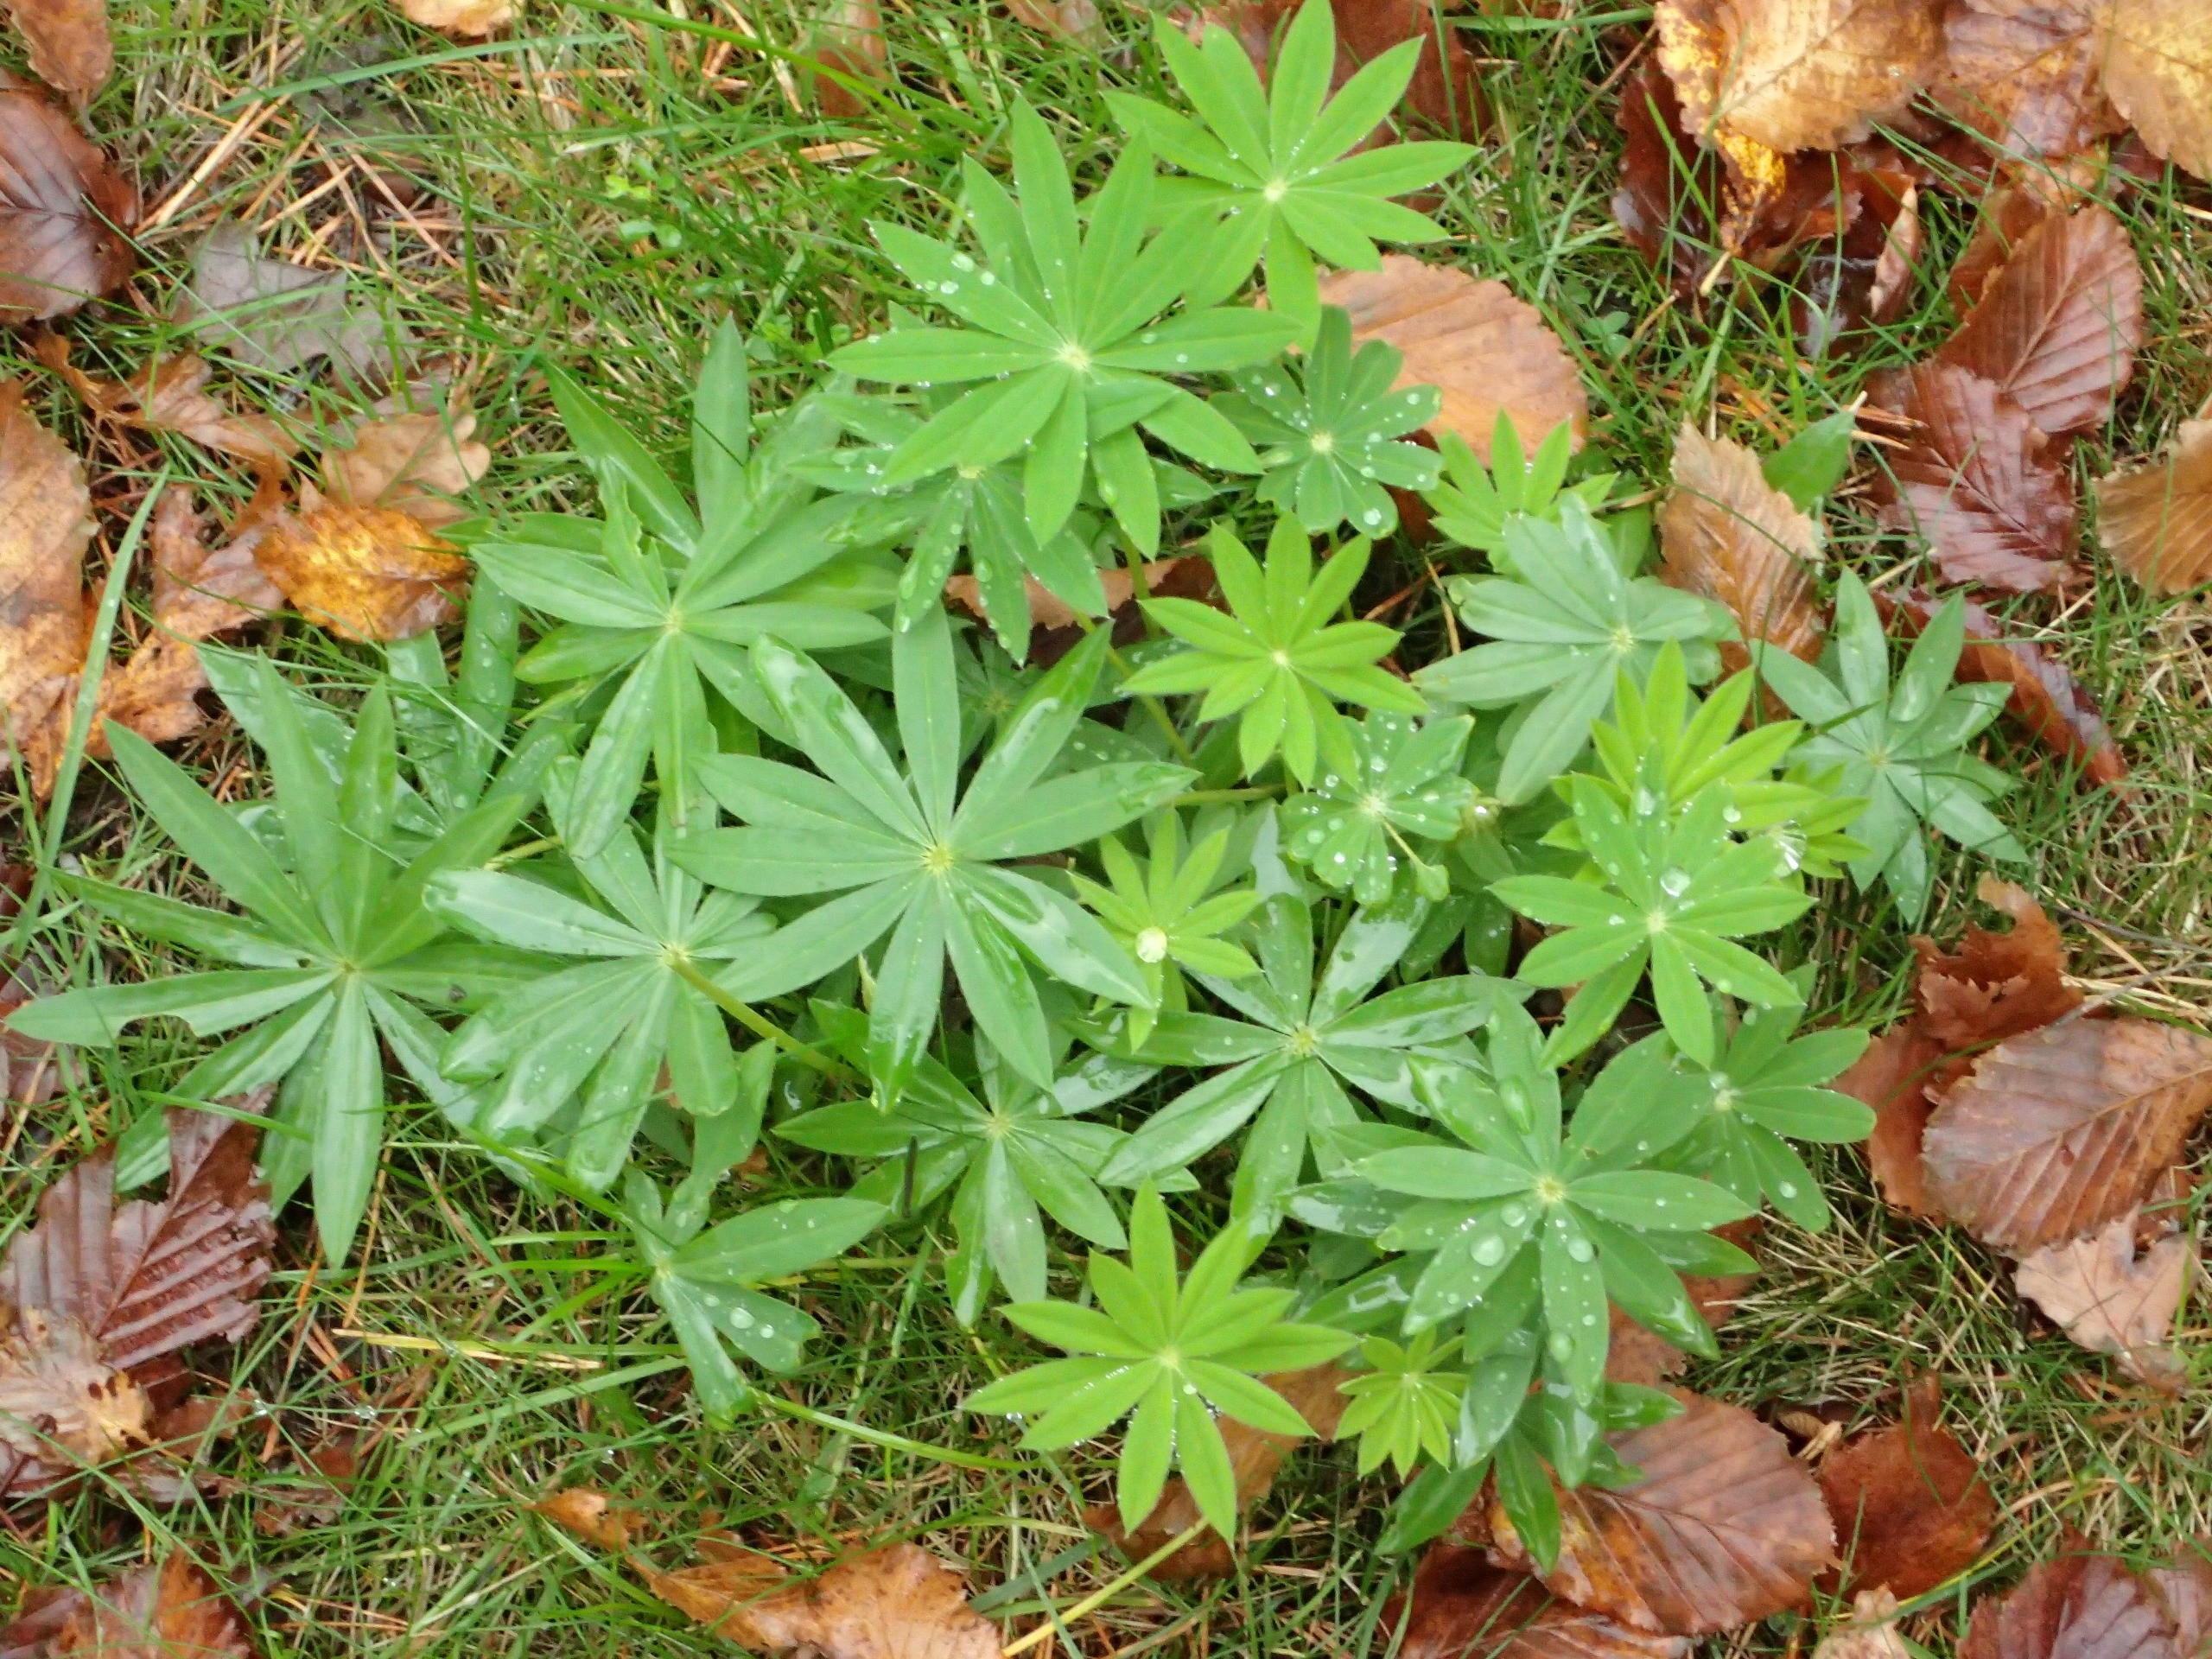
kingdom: Plantae
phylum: Tracheophyta
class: Magnoliopsida
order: Fabales
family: Fabaceae
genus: Lupinus
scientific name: Lupinus polyphyllus
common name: Mangebladet lupin
